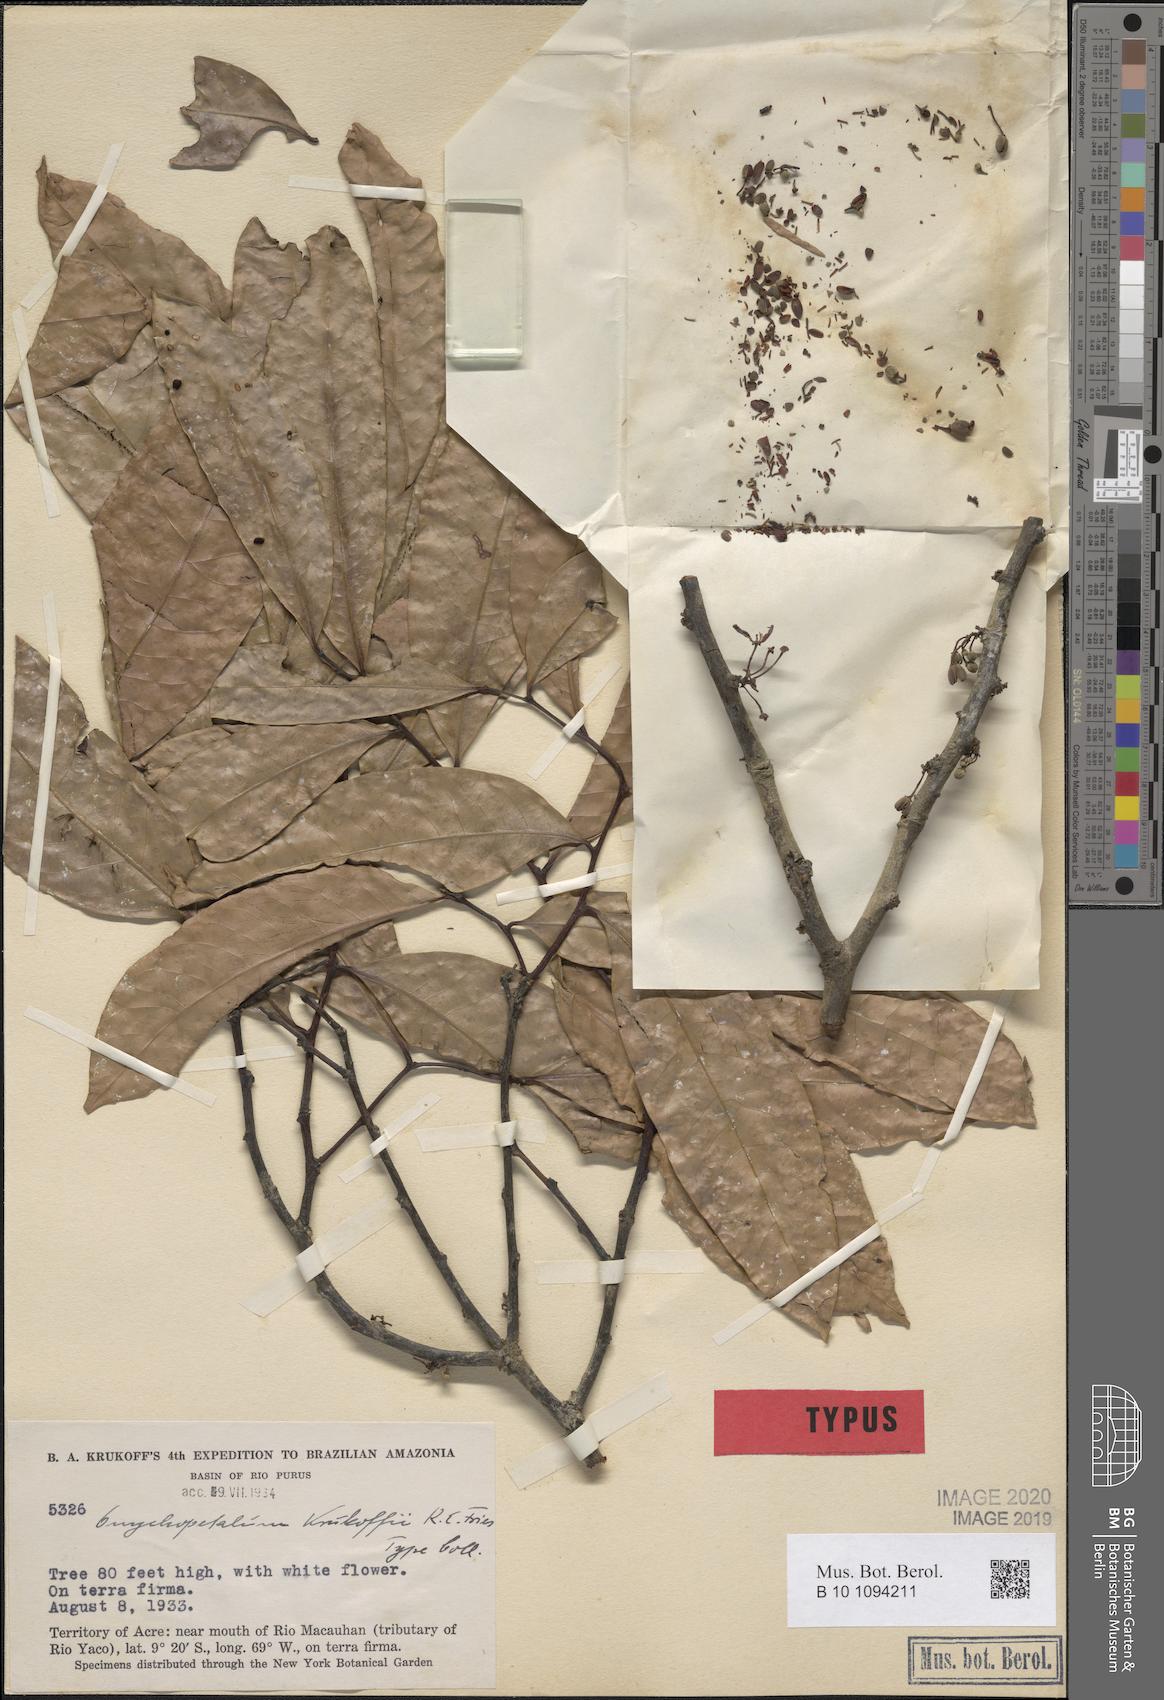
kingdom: Plantae
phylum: Tracheophyta
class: Magnoliopsida
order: Magnoliales
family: Annonaceae
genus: Onychopetalum
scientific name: Onychopetalum periquino
